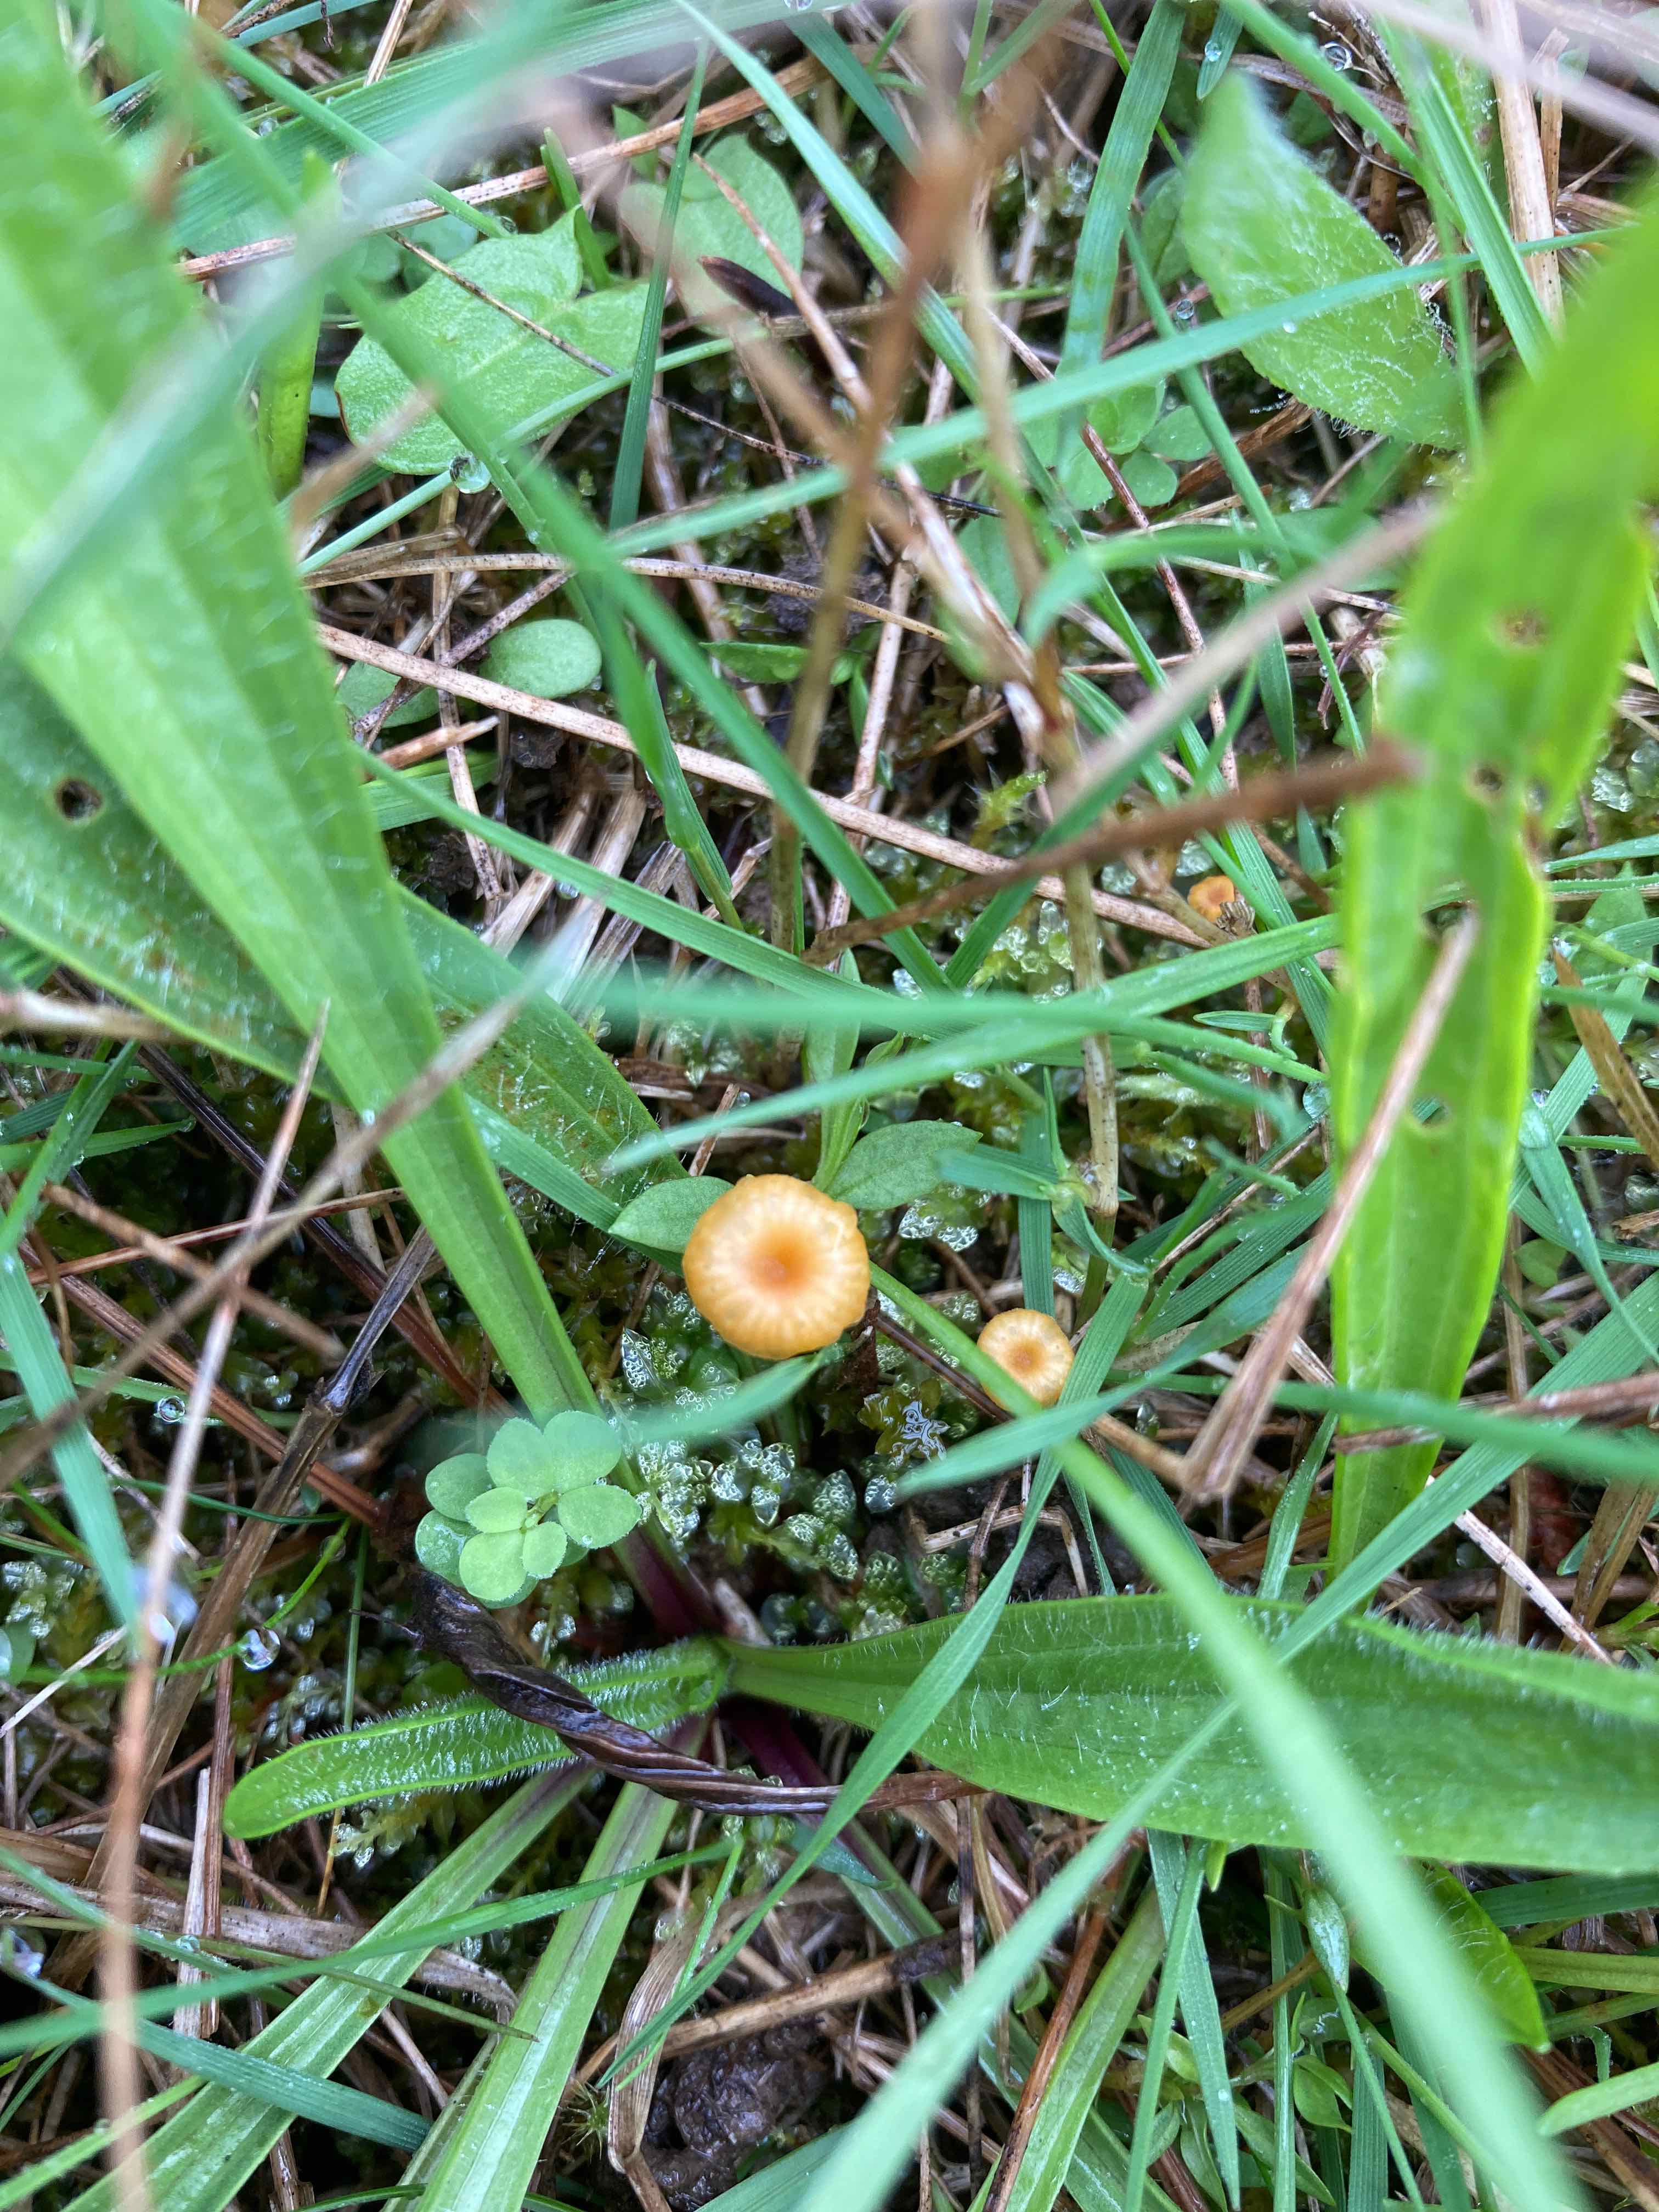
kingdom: Fungi
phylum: Basidiomycota
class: Agaricomycetes
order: Hymenochaetales
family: Rickenellaceae
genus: Rickenella
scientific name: Rickenella fibula
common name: orange mosnavlehat
